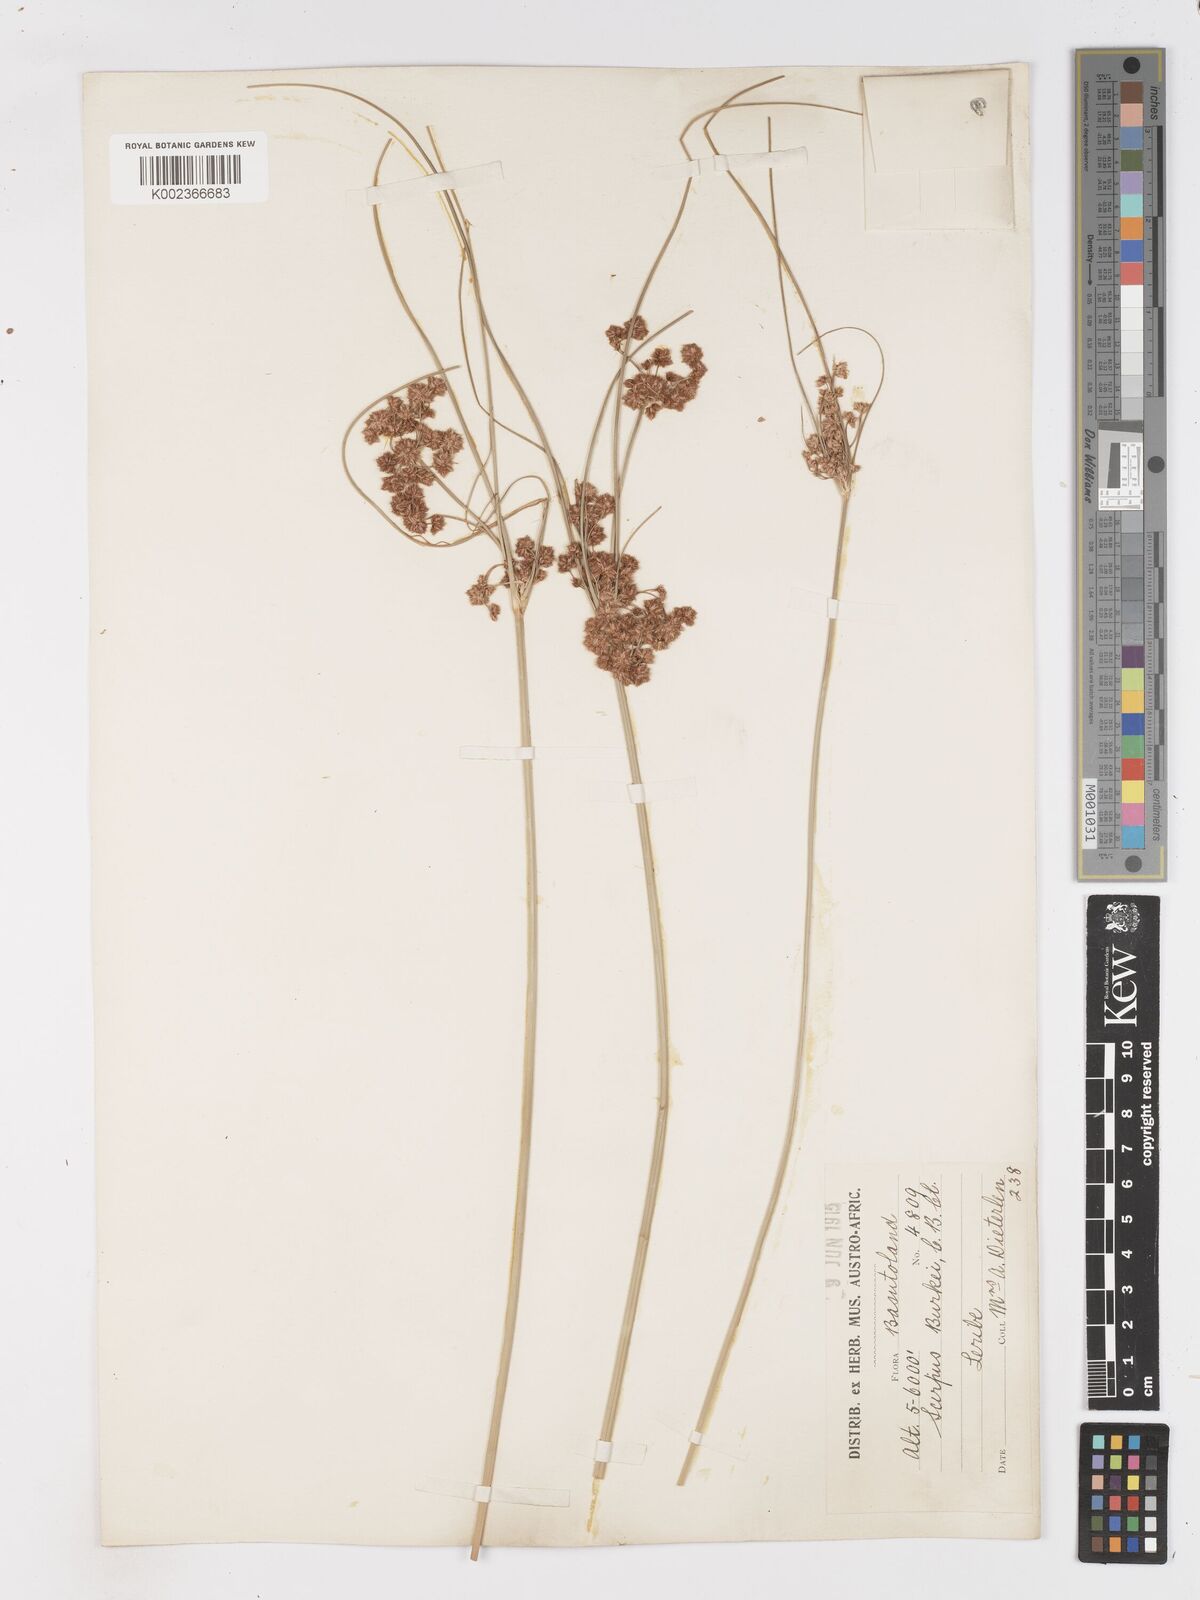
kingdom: Plantae
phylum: Tracheophyta
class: Liliopsida
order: Poales
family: Cyperaceae
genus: Scirpoides
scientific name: Scirpoides burkei
